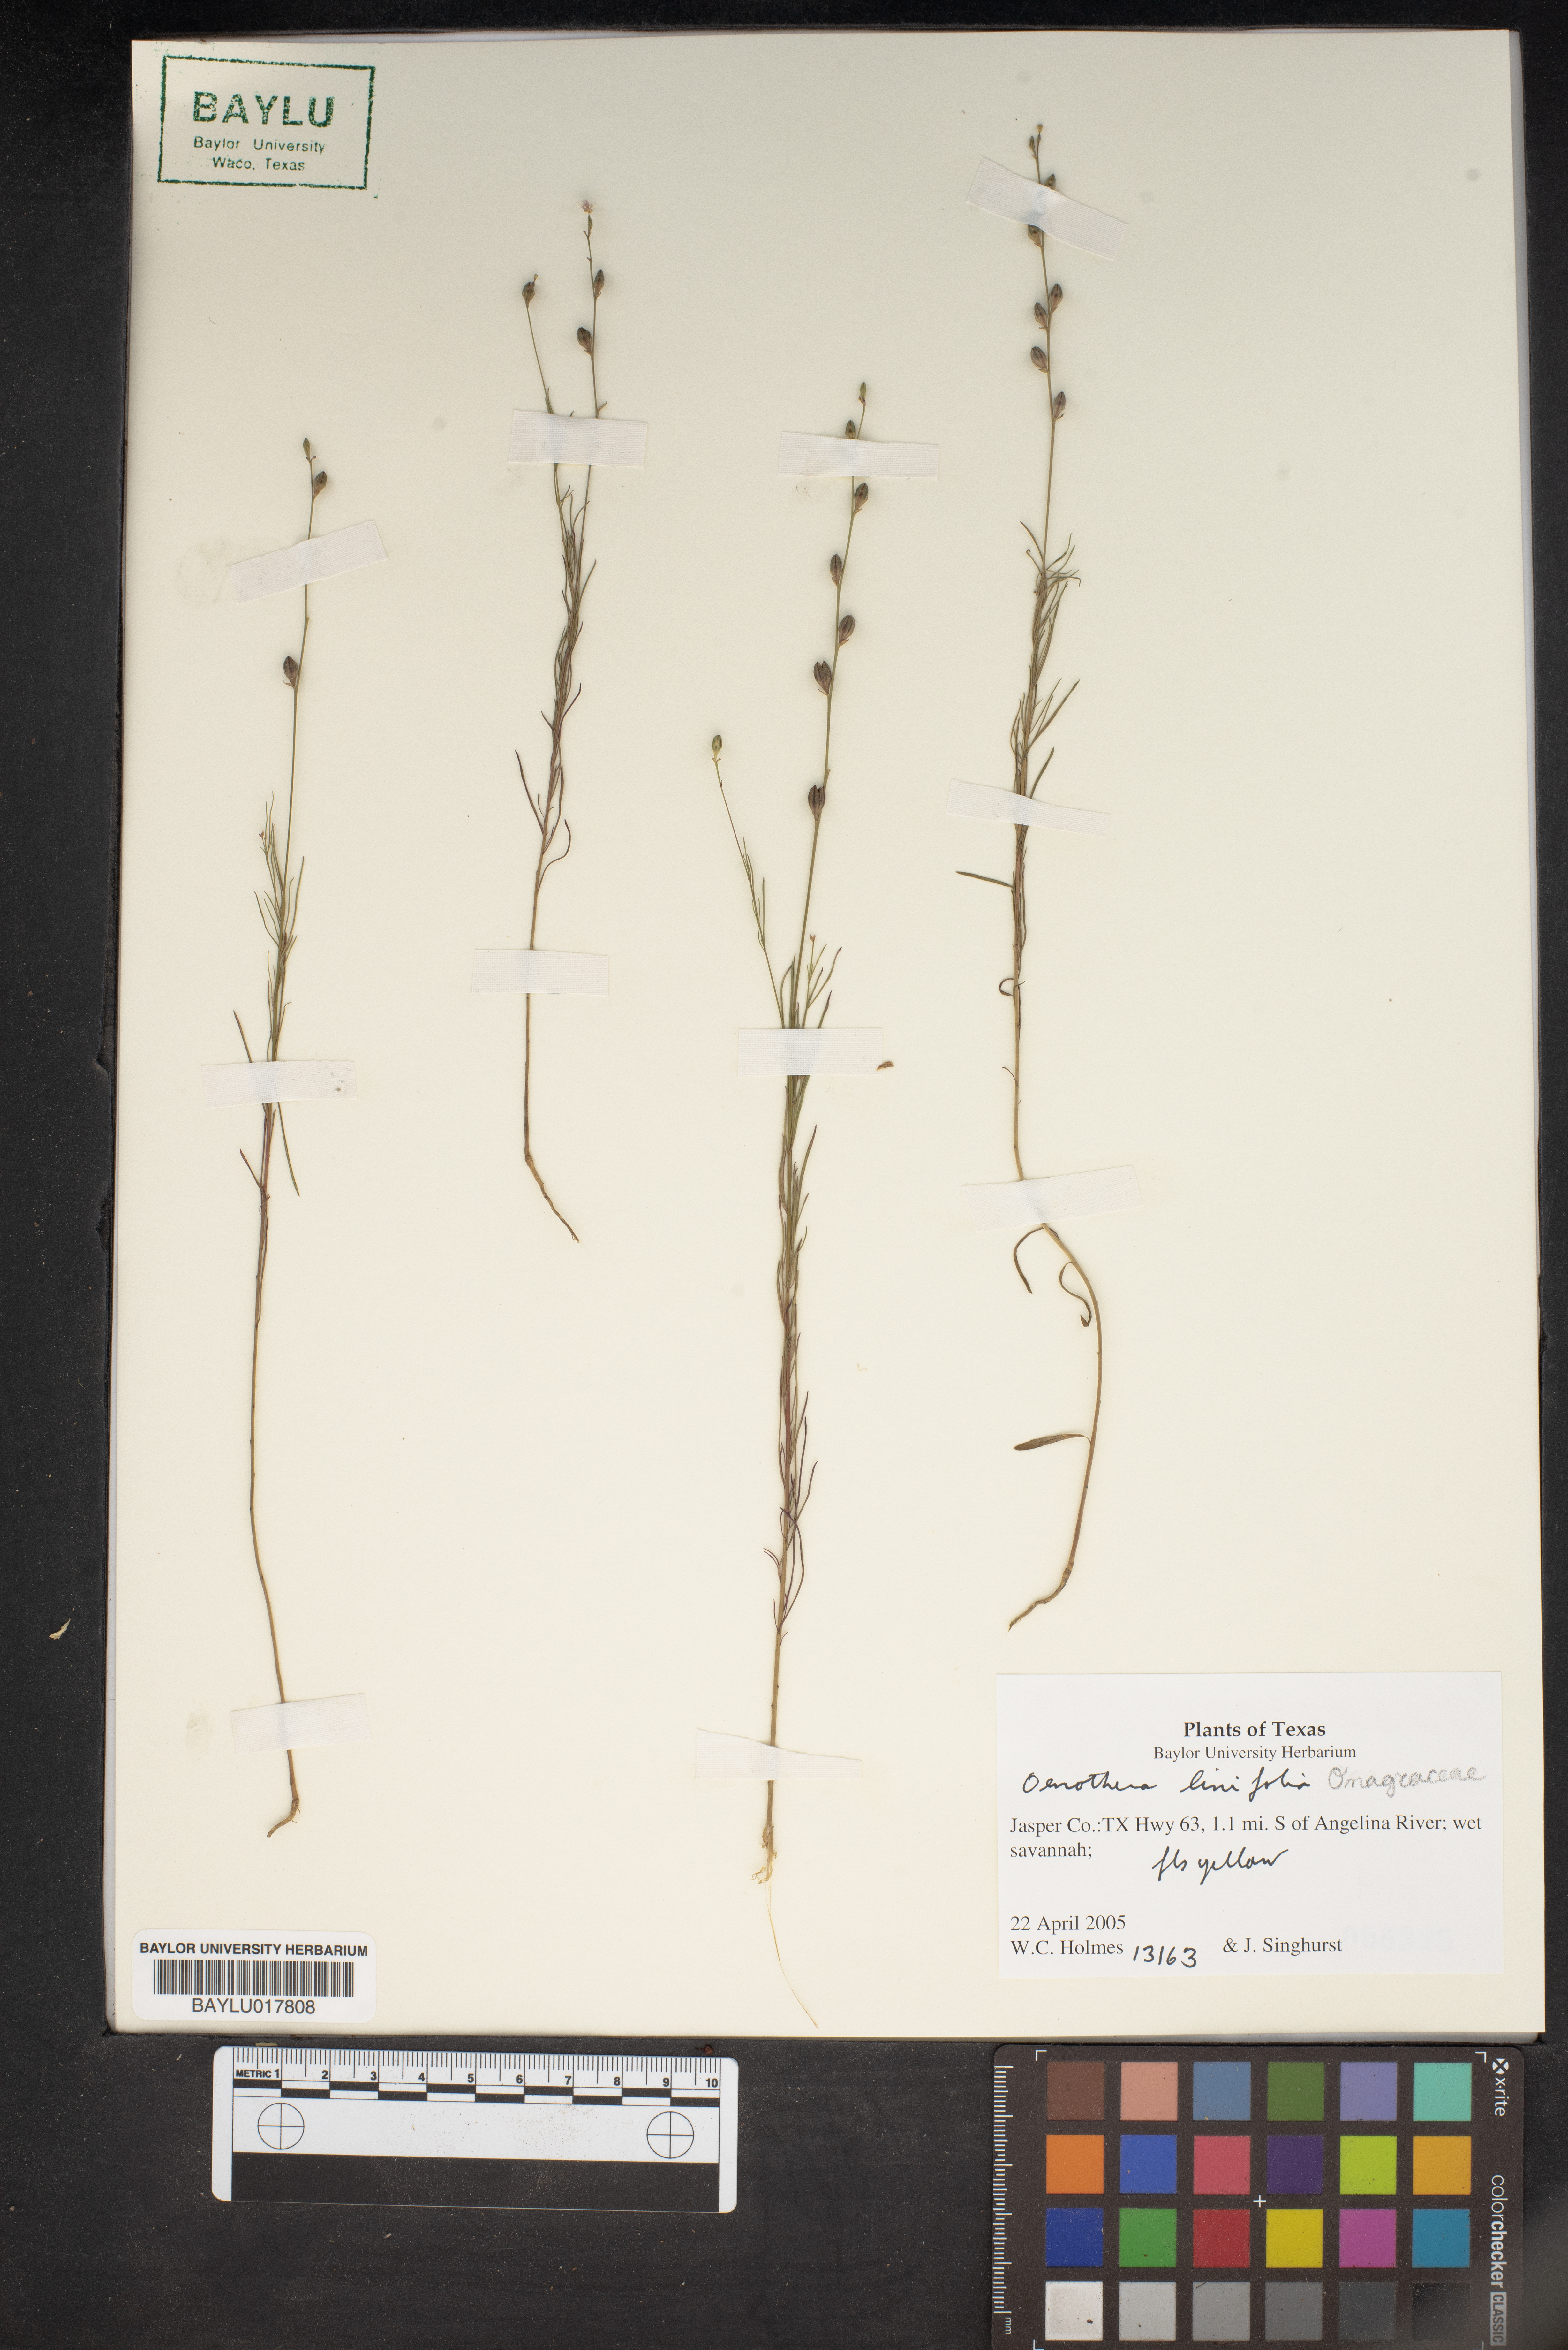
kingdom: Plantae
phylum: Tracheophyta
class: Magnoliopsida
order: Myrtales
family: Onagraceae
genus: Oenothera
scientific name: Oenothera linifolia
